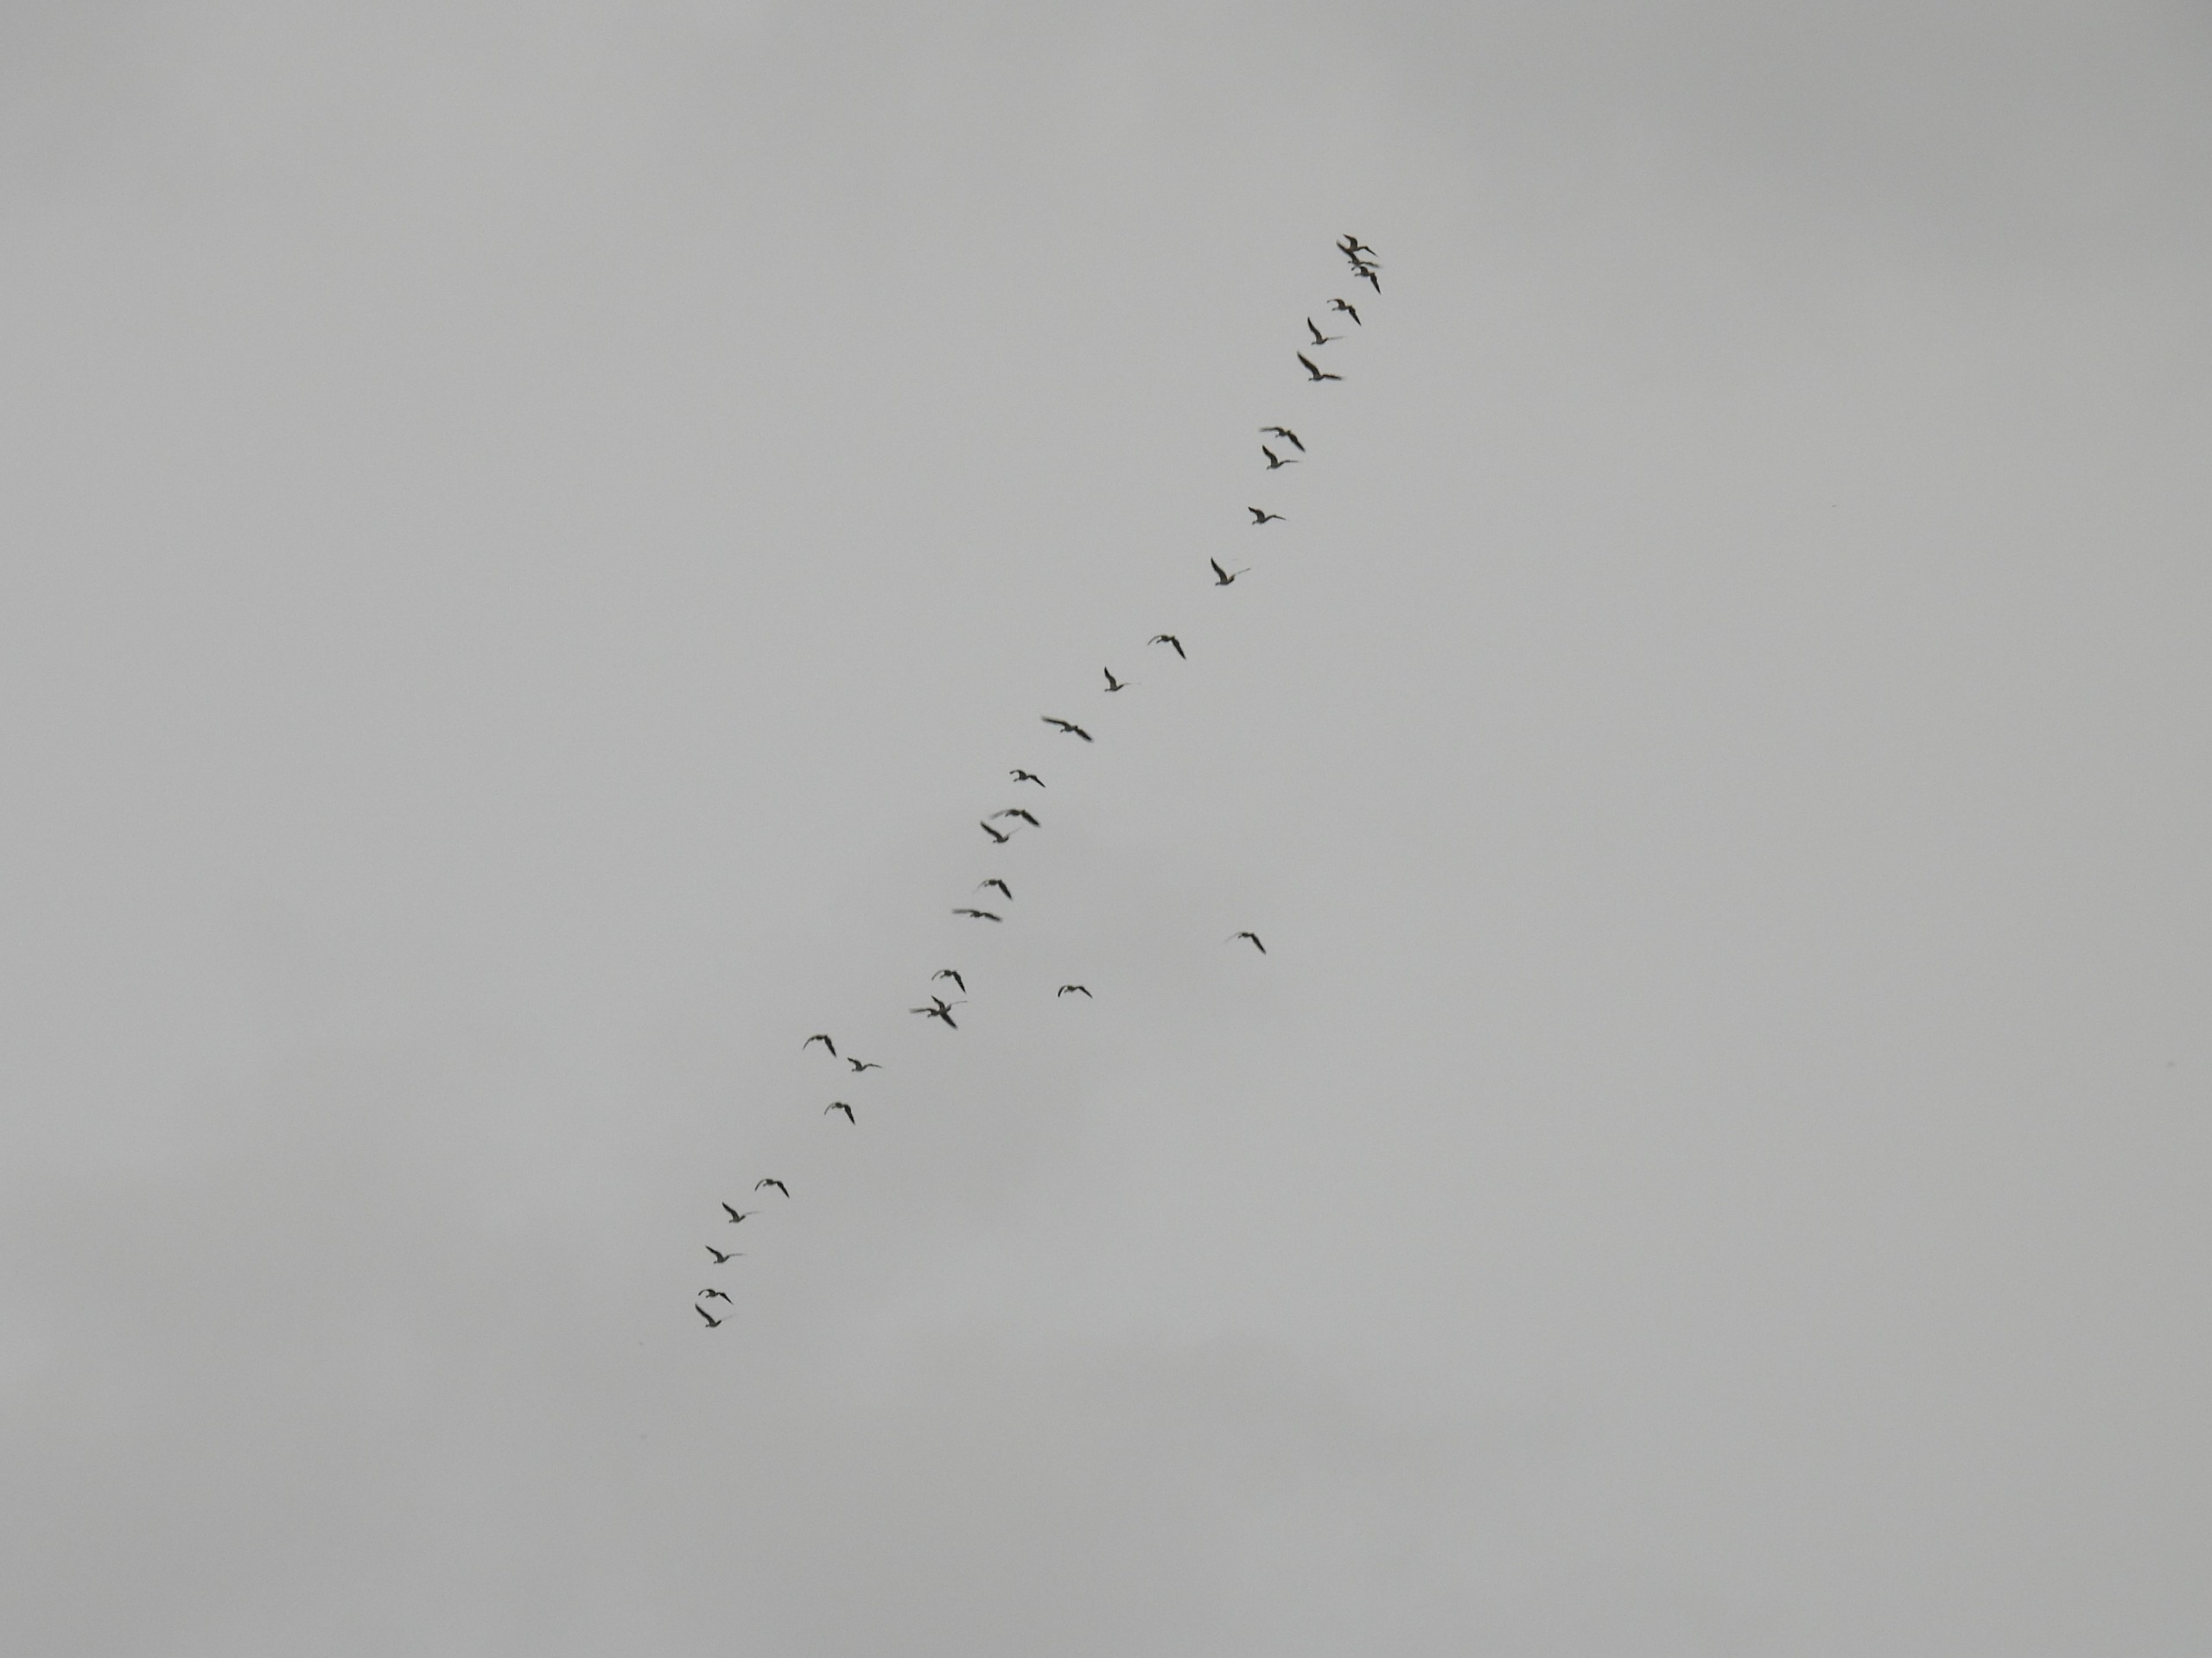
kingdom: Animalia
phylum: Chordata
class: Aves
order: Anseriformes
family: Anatidae
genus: Anser
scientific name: Anser anser
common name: Grågås
